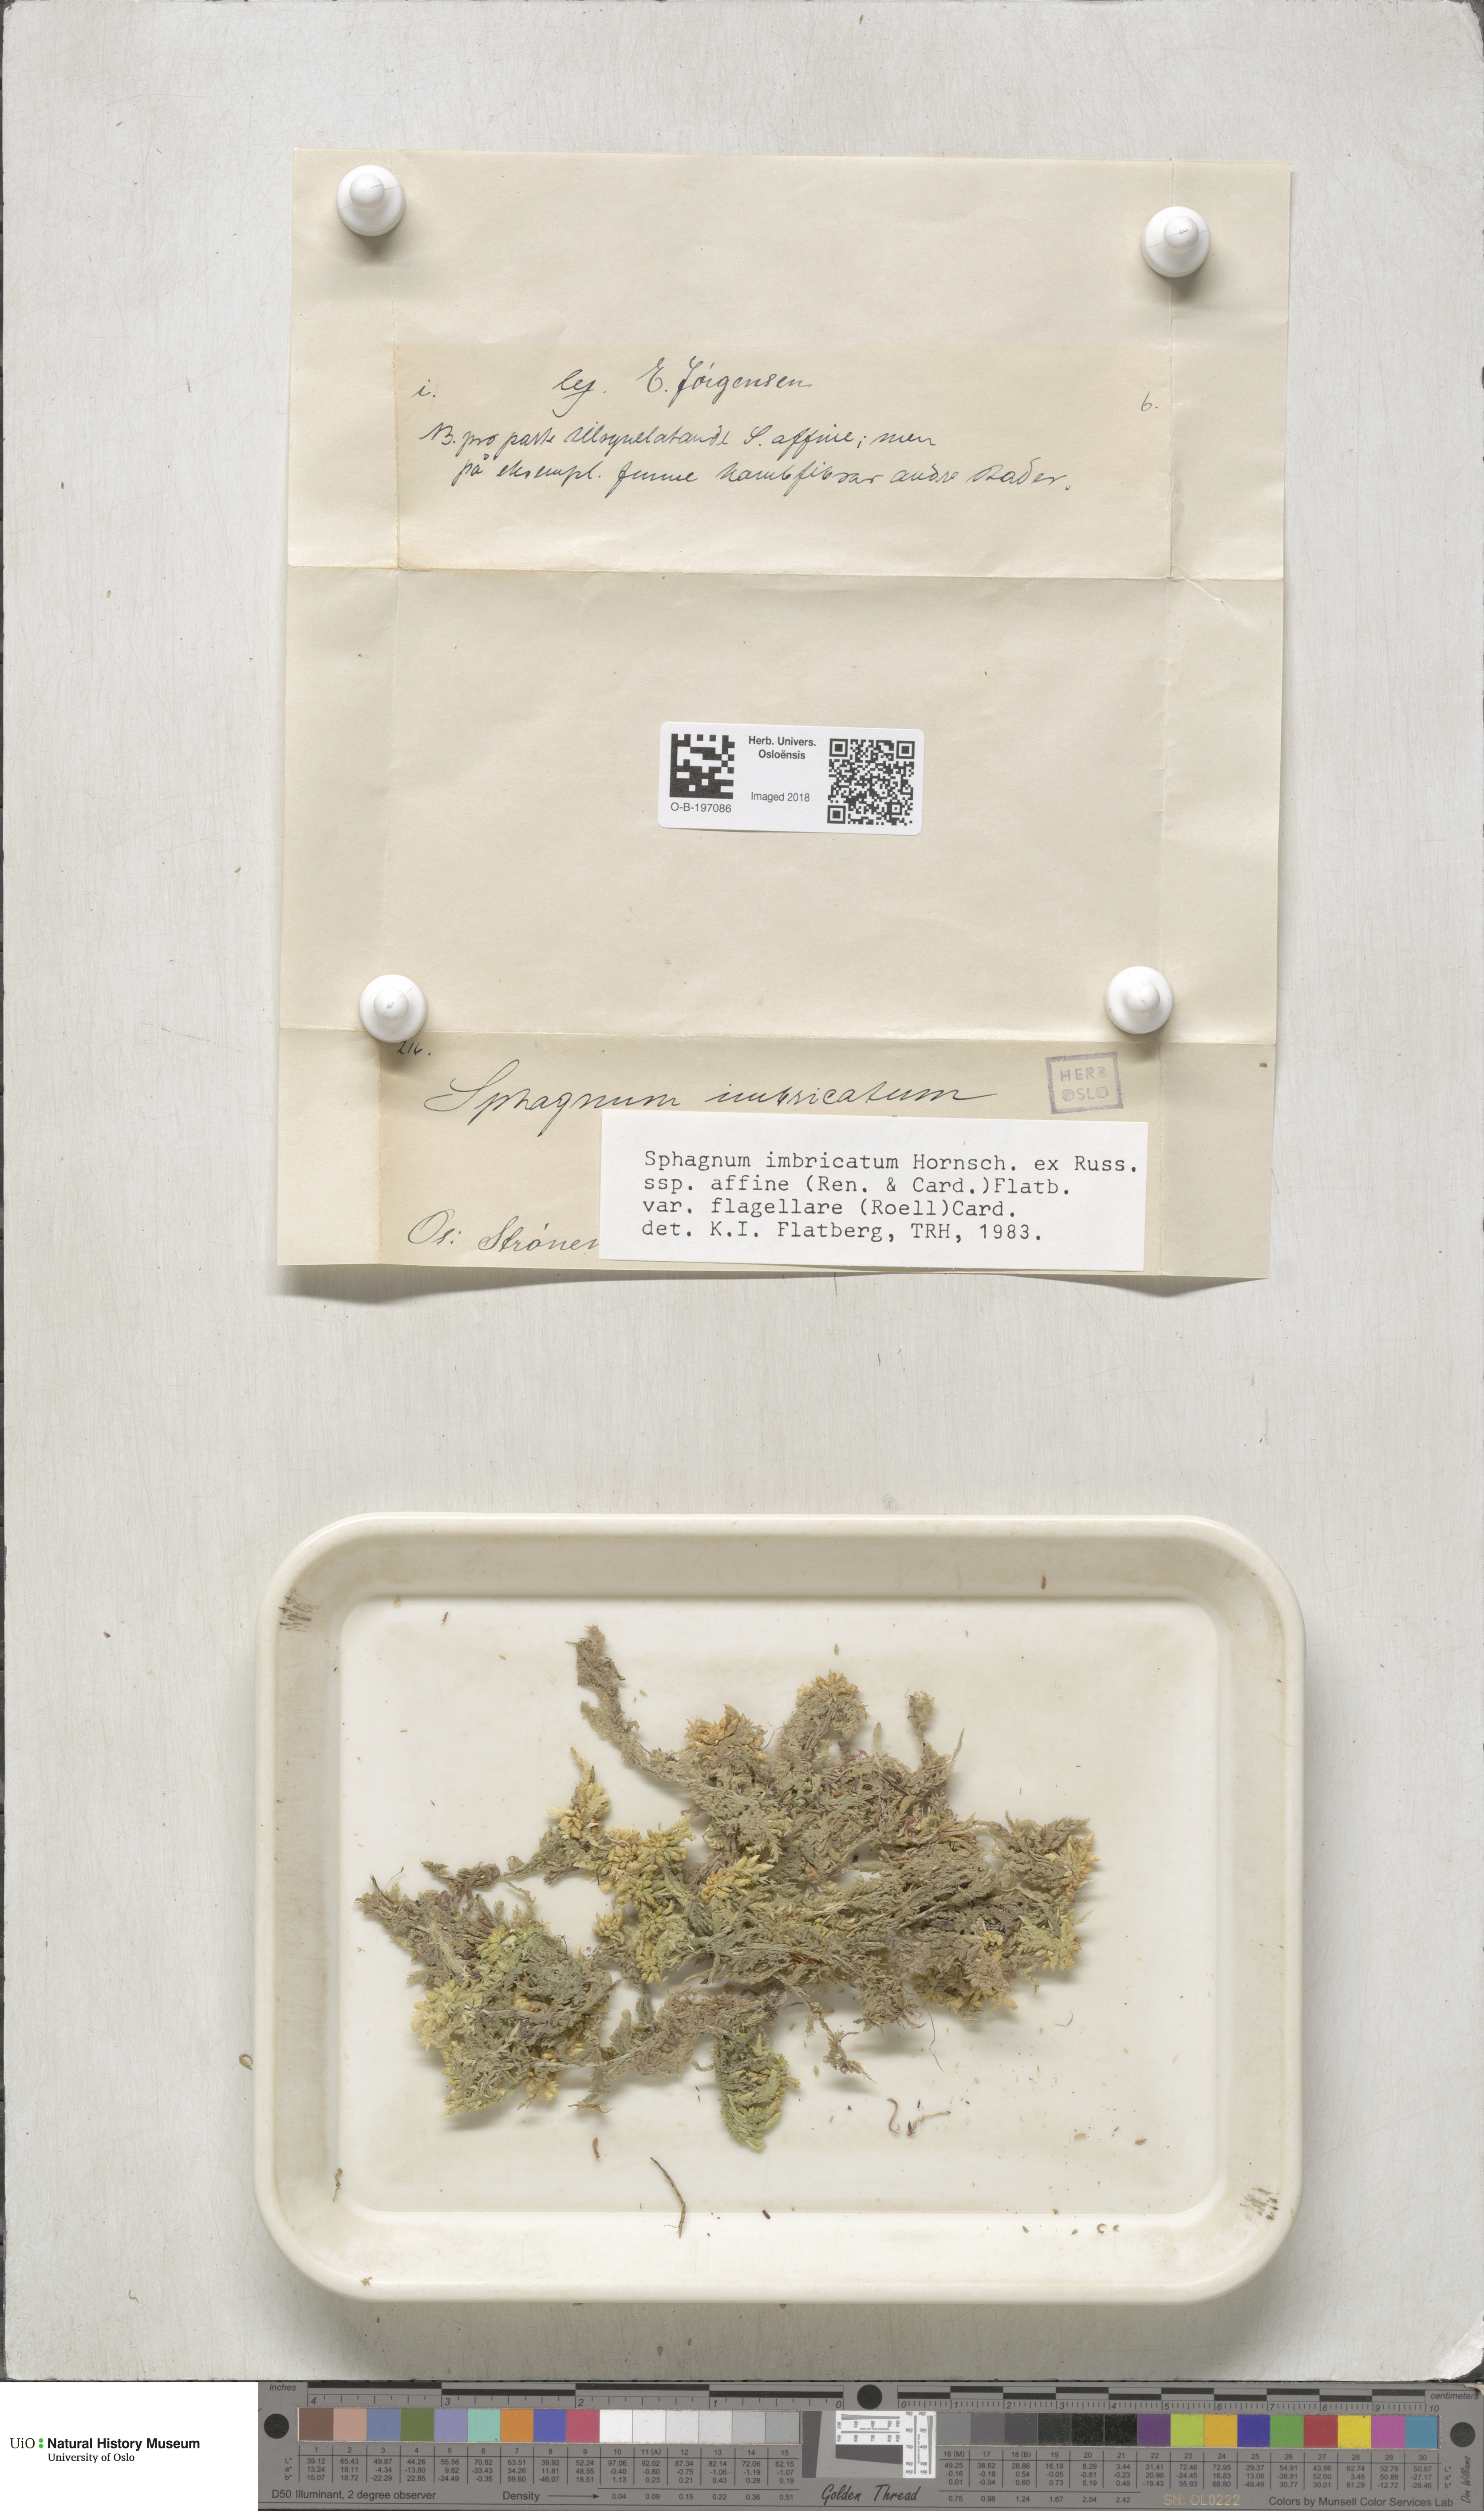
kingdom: Plantae
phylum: Bryophyta
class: Sphagnopsida
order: Sphagnales
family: Sphagnaceae
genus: Sphagnum
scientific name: Sphagnum affine
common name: Imbricate peat moss
